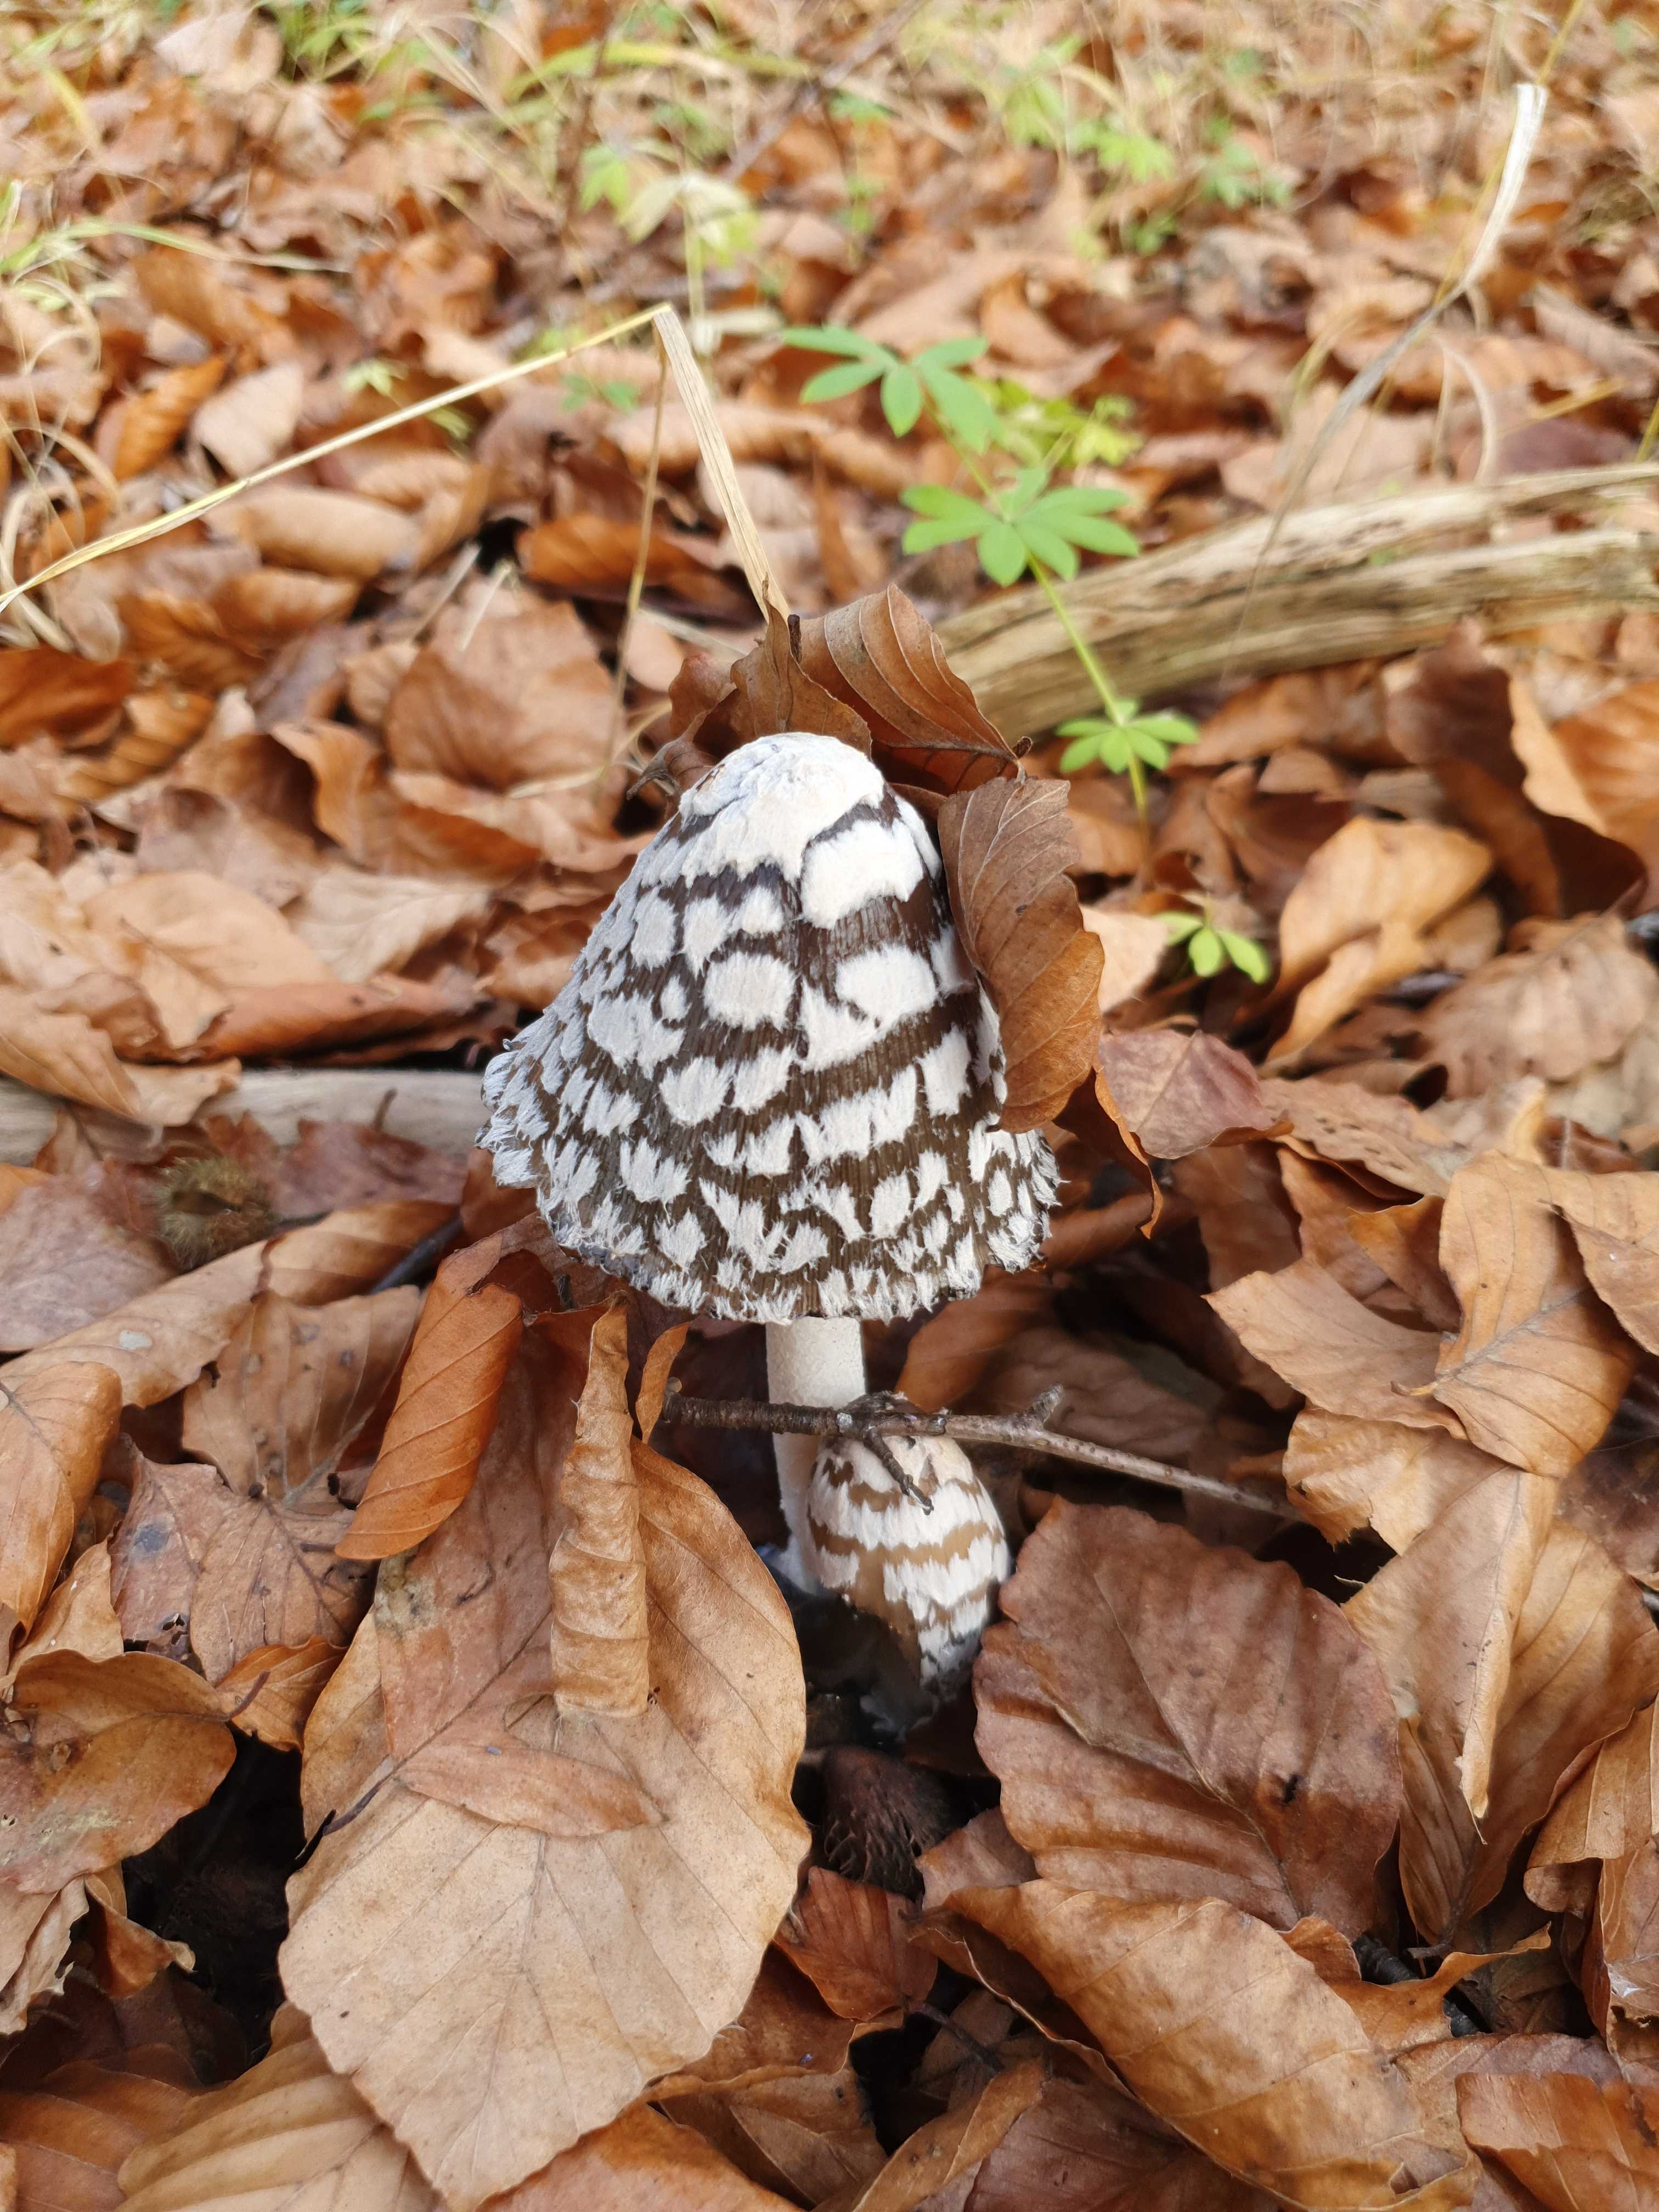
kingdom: Fungi
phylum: Basidiomycota
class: Agaricomycetes
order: Agaricales
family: Psathyrellaceae
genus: Coprinopsis
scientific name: Coprinopsis picacea
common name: skade-blækhat
